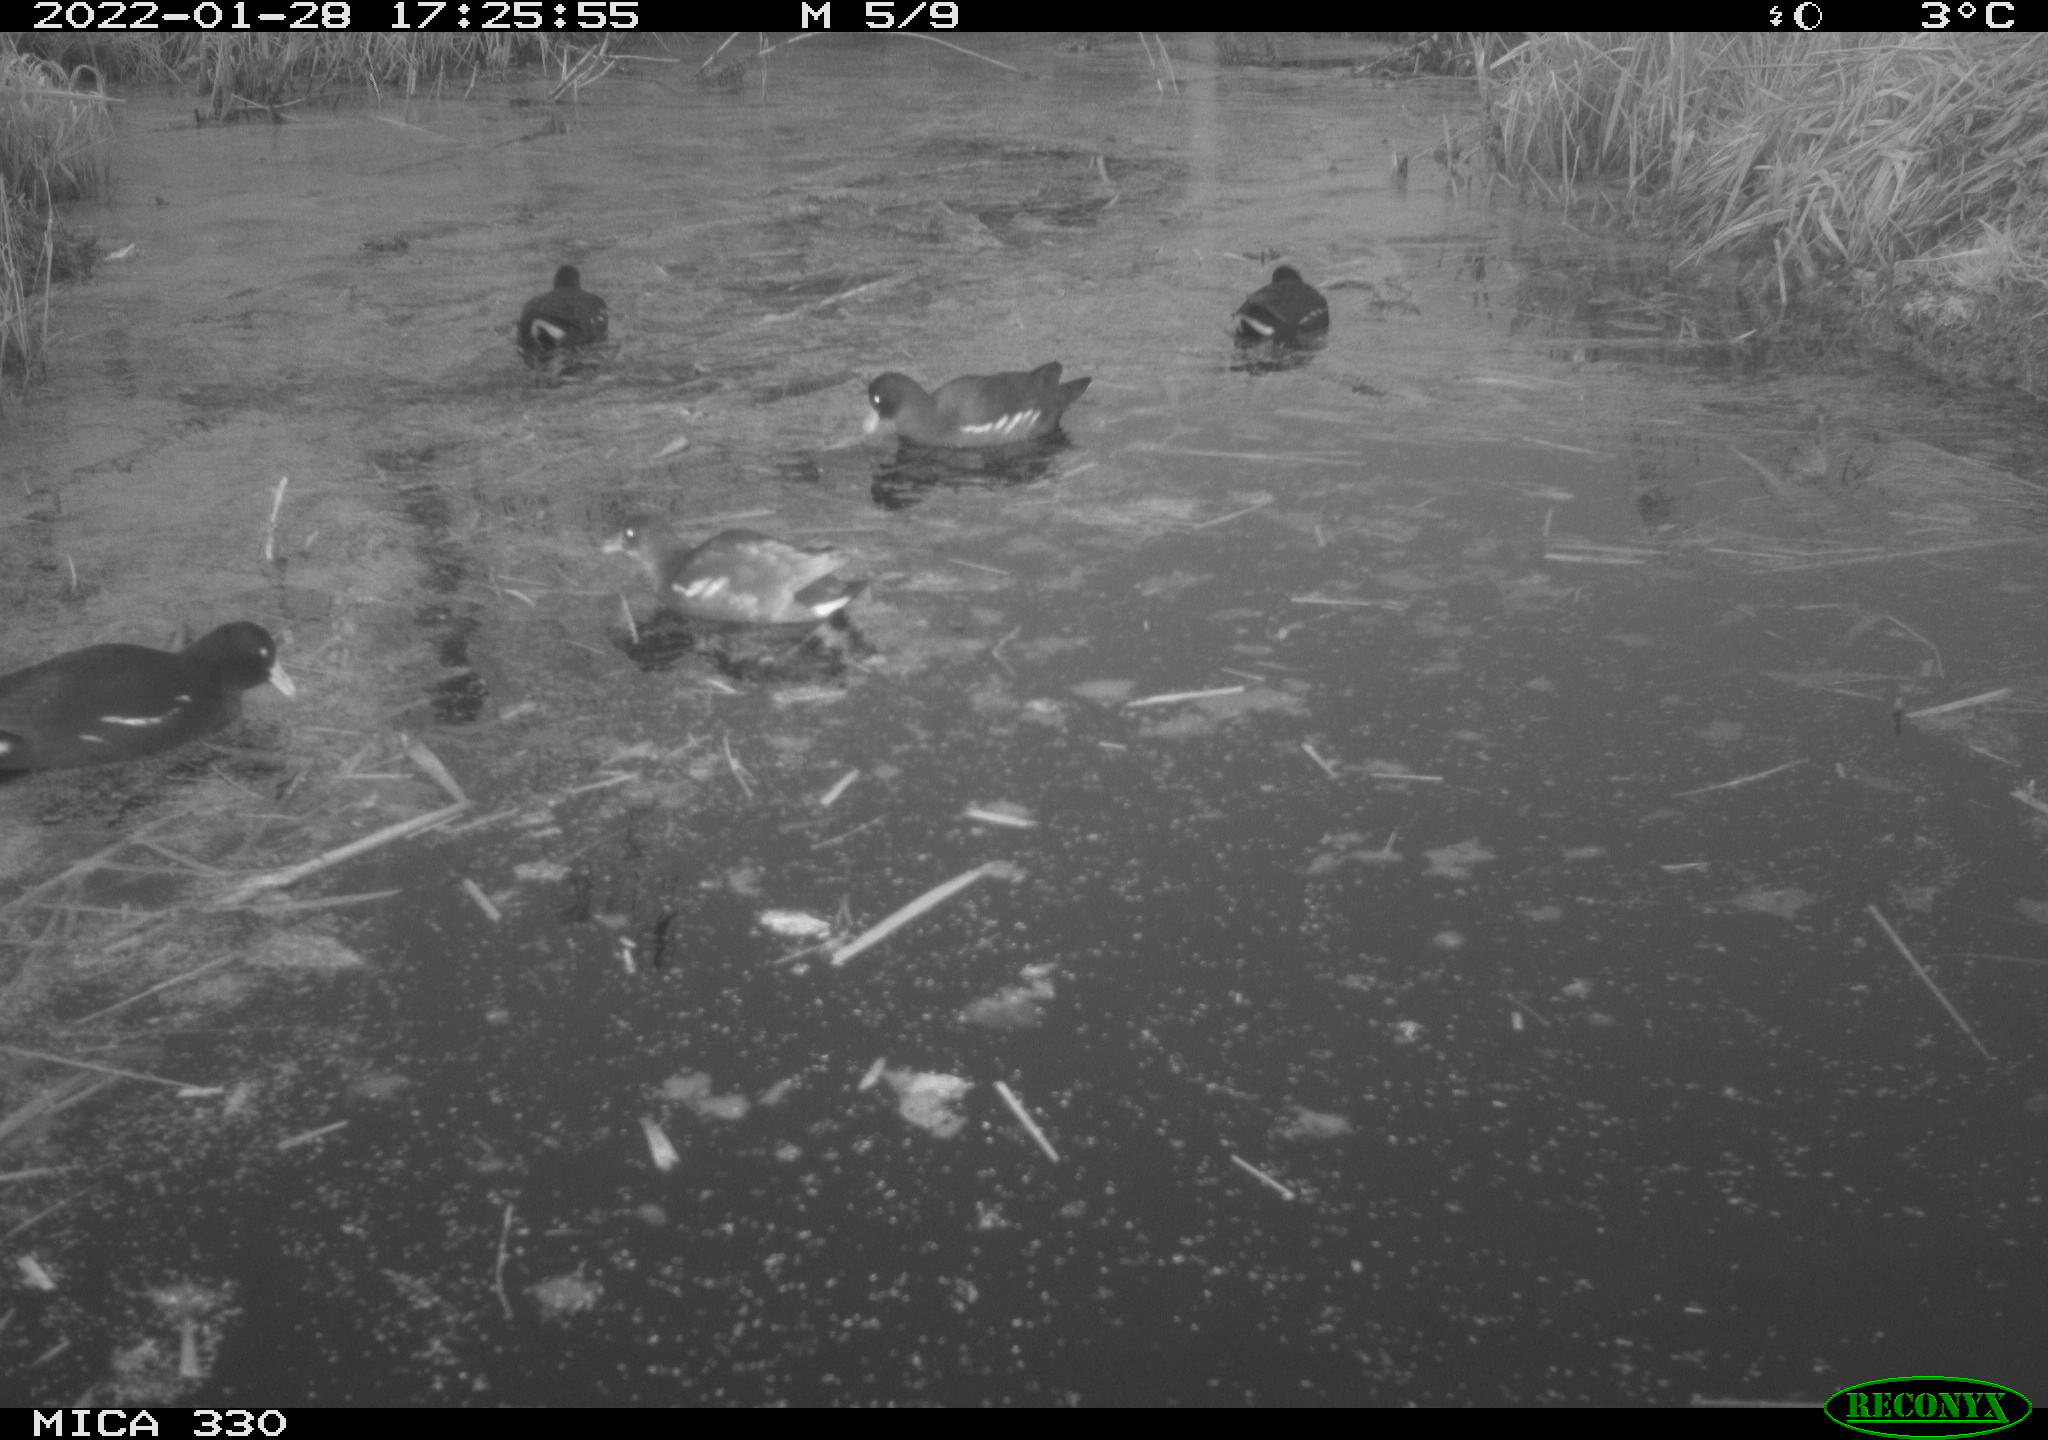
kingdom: Animalia
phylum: Chordata
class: Aves
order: Gruiformes
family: Rallidae
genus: Gallinula
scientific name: Gallinula chloropus
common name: Common moorhen
